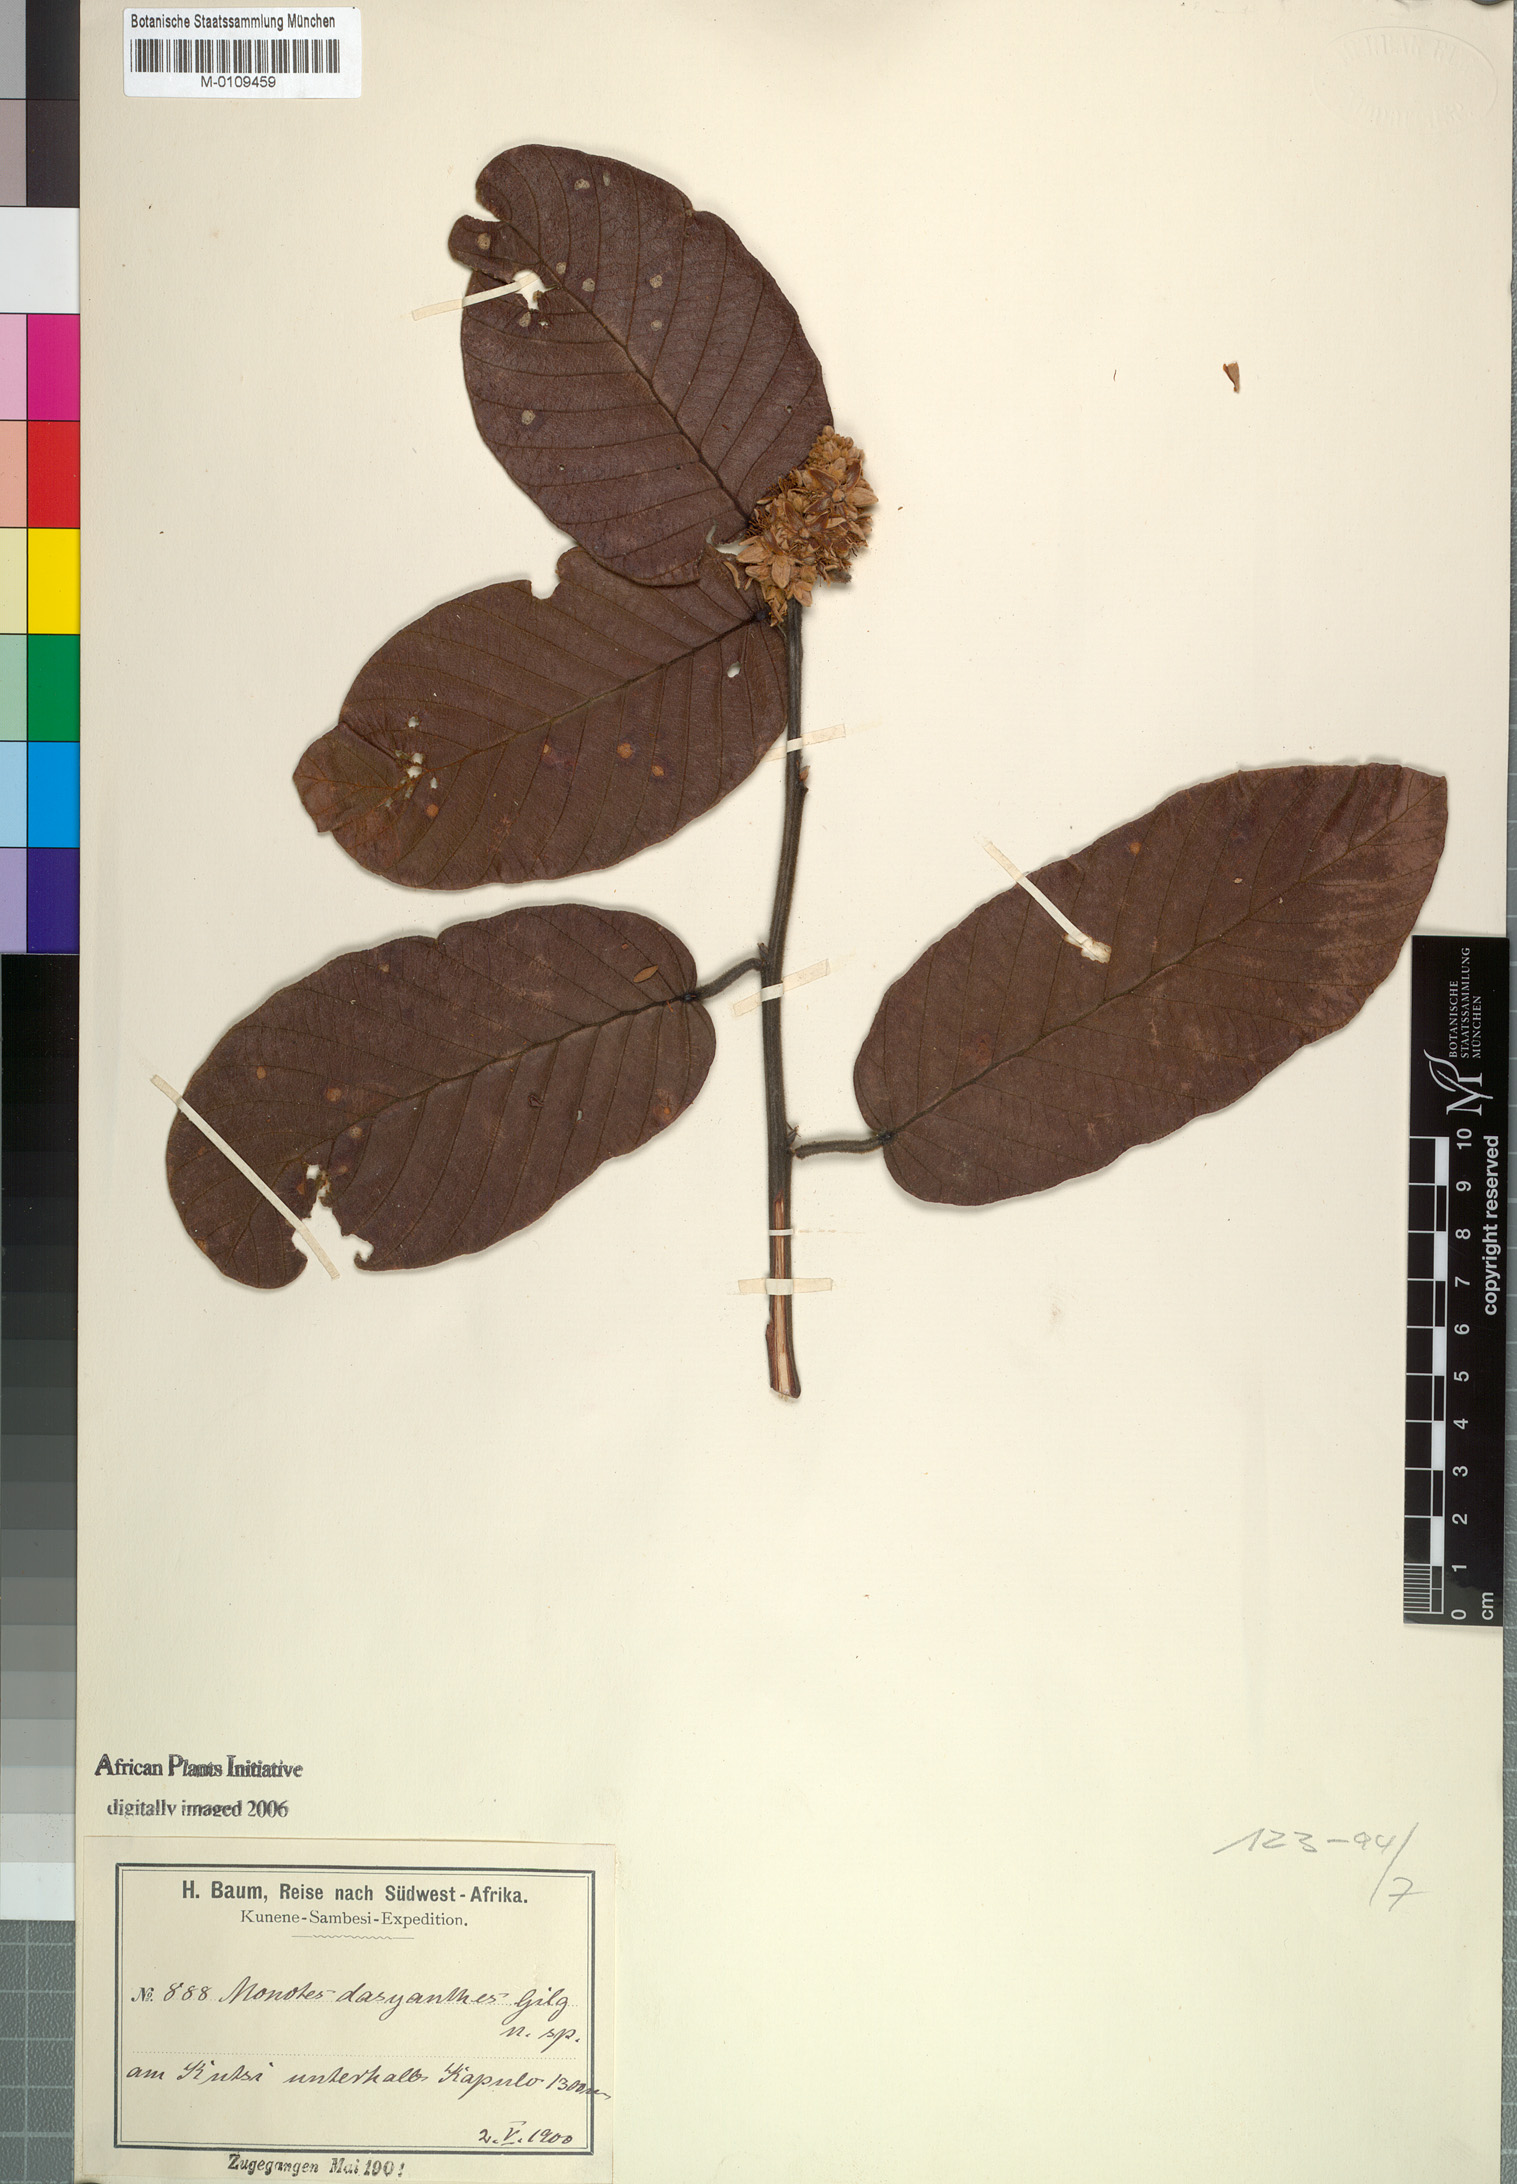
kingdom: Plantae
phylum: Tracheophyta
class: Magnoliopsida
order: Malvales
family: Dipterocarpaceae
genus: Monotes
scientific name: Monotes dasyanthus
